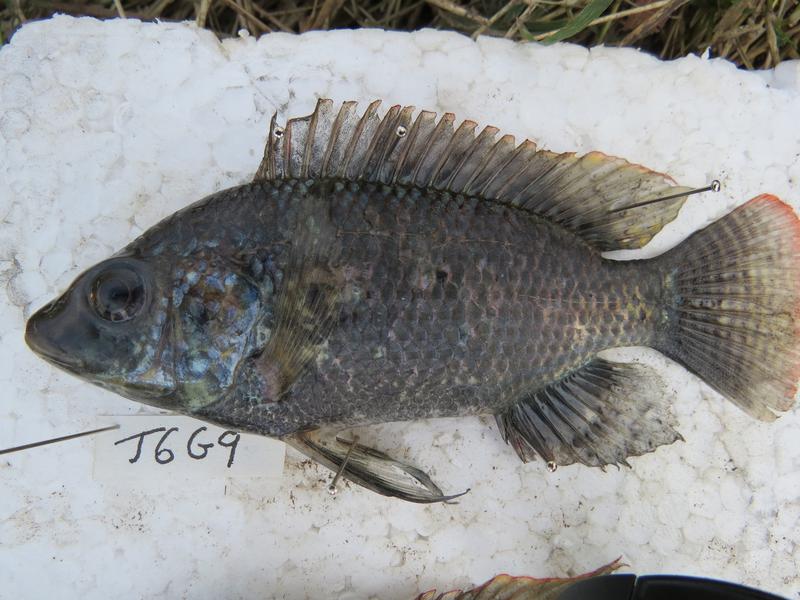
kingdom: Animalia
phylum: Chordata
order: Perciformes
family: Cichlidae
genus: Oreochromis
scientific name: Oreochromis urolepis
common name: Wami tilapia
